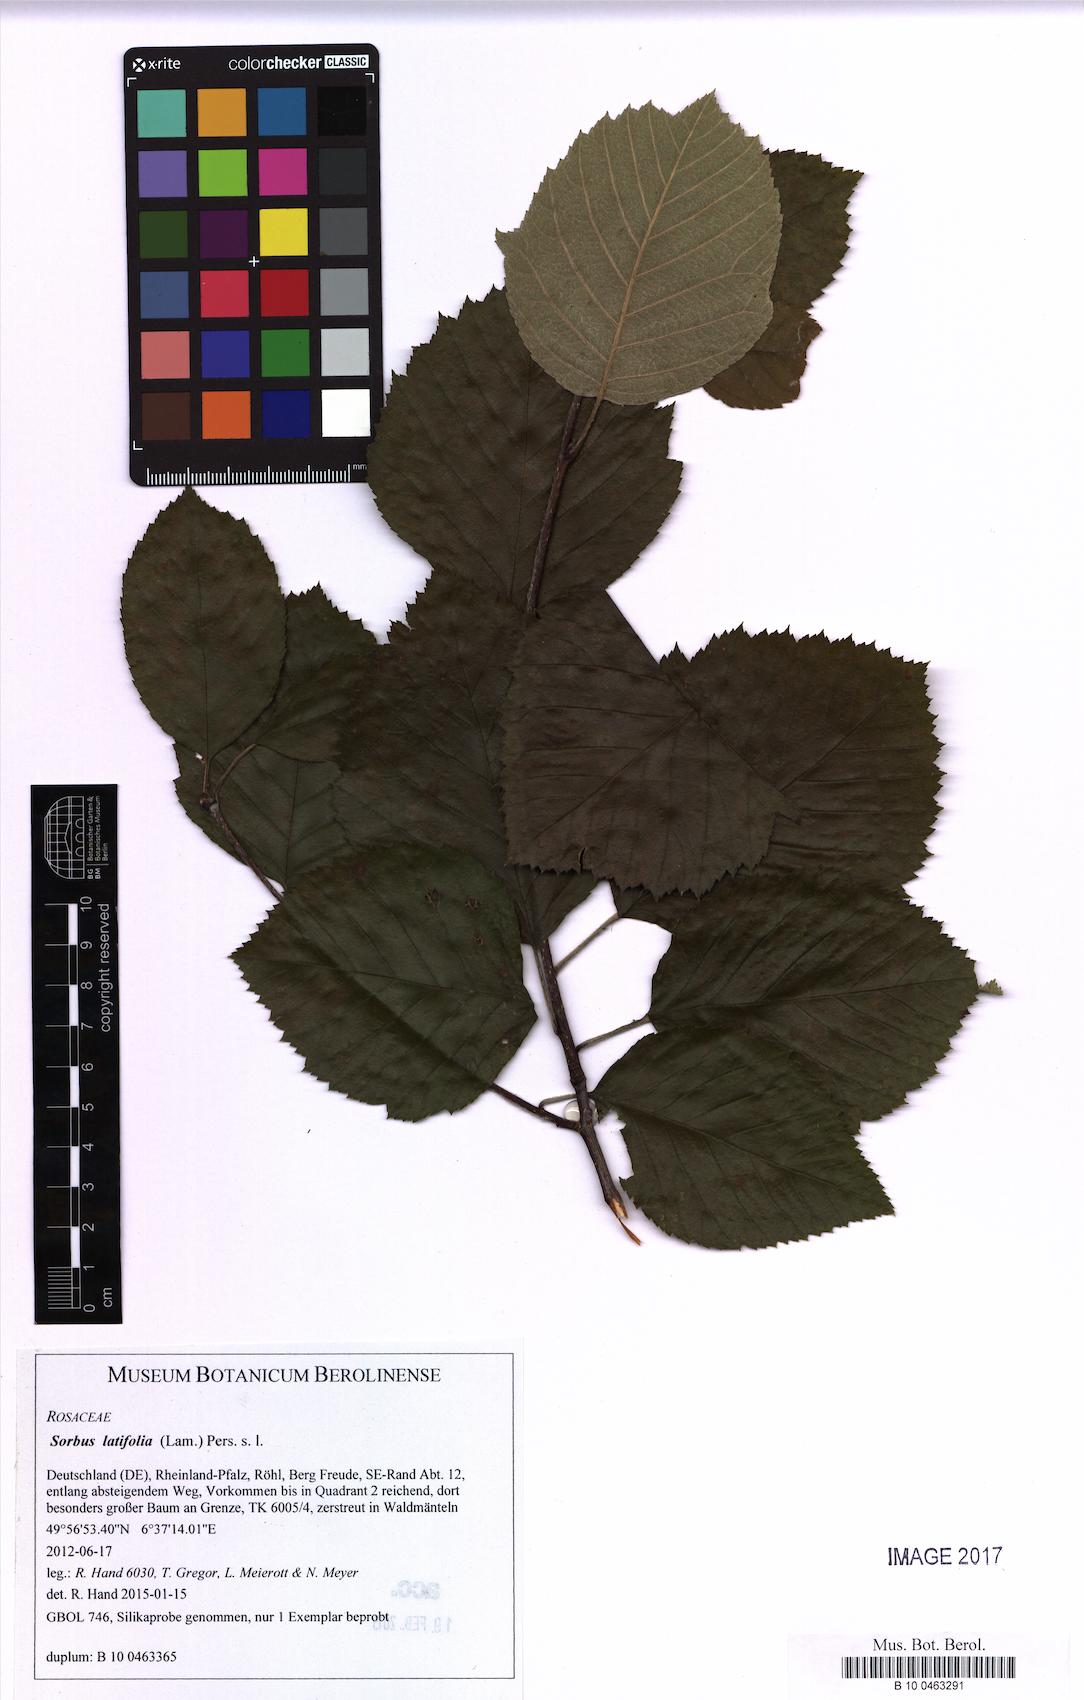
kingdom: Plantae
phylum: Tracheophyta
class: Magnoliopsida
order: Rosales
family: Rosaceae
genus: Karpatiosorbus
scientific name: Karpatiosorbus latifolia
